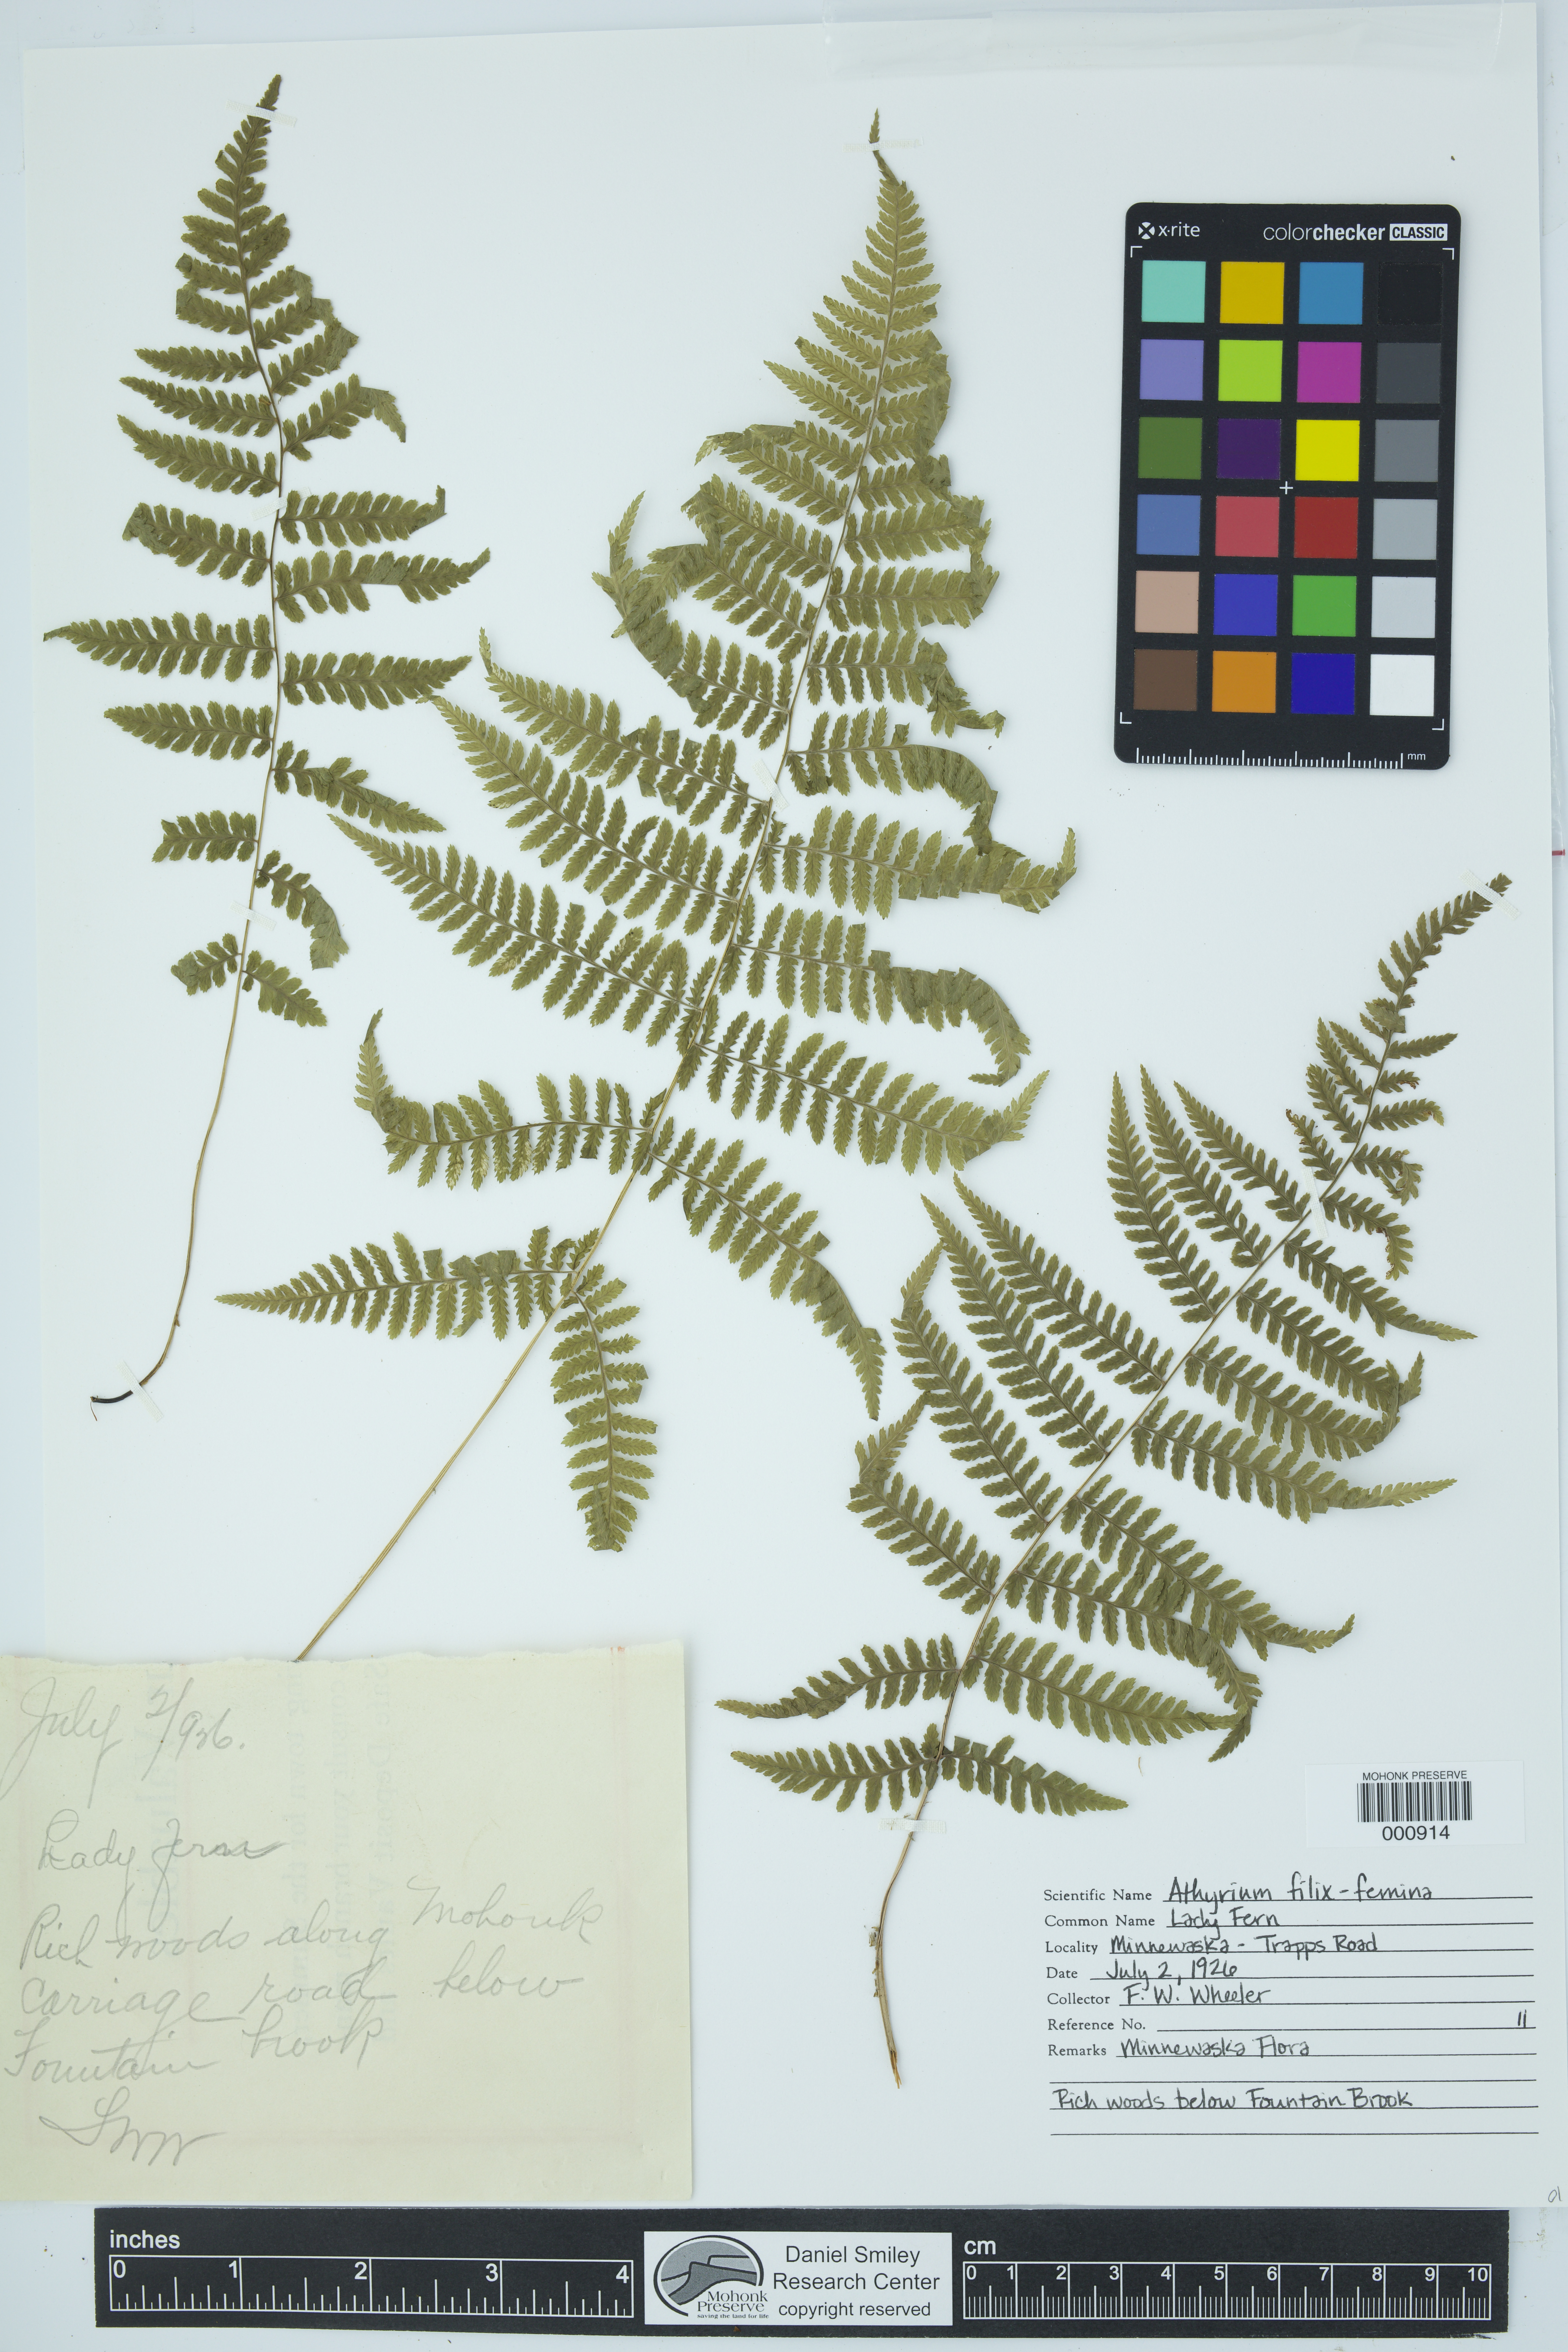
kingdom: Plantae
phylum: Tracheophyta
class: Polypodiopsida
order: Polypodiales
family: Athyriaceae
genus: Athyrium
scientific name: Athyrium filix-femina
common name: Lady fern
